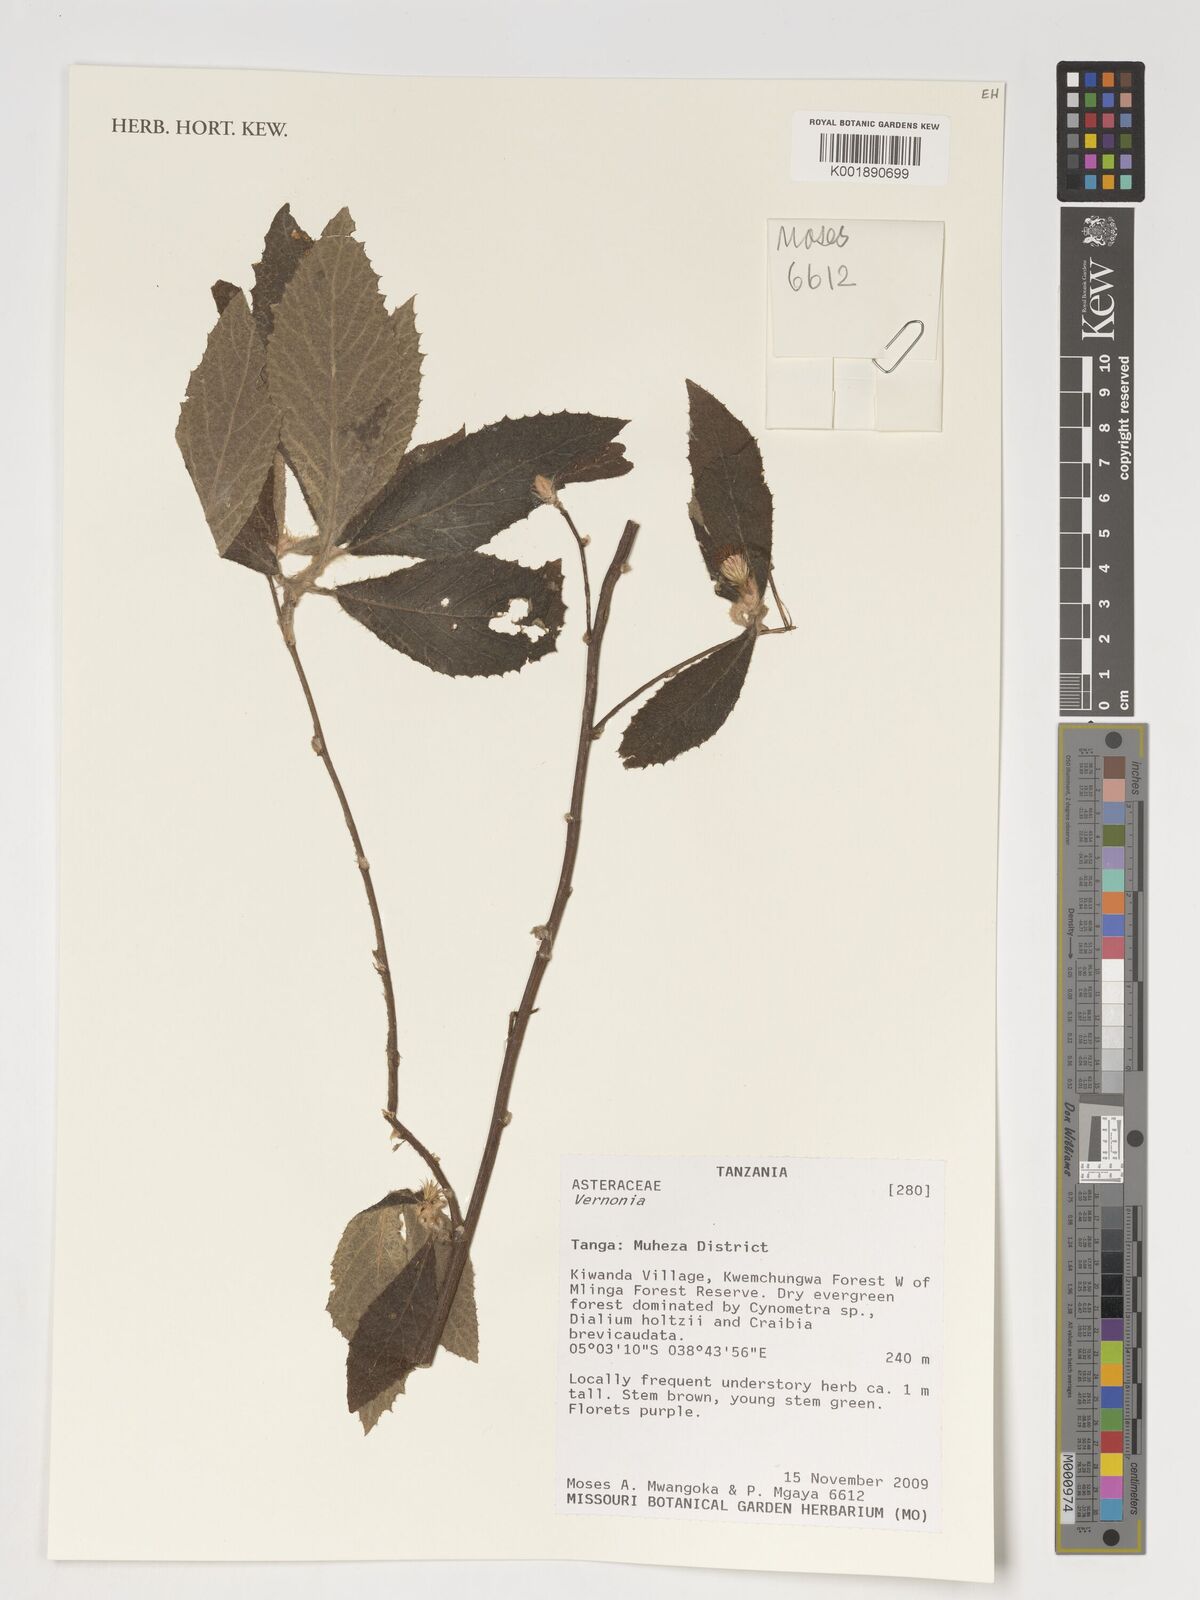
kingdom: Plantae
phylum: Tracheophyta
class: Magnoliopsida
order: Asterales
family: Asteraceae
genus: Vernonia
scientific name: Vernonia
